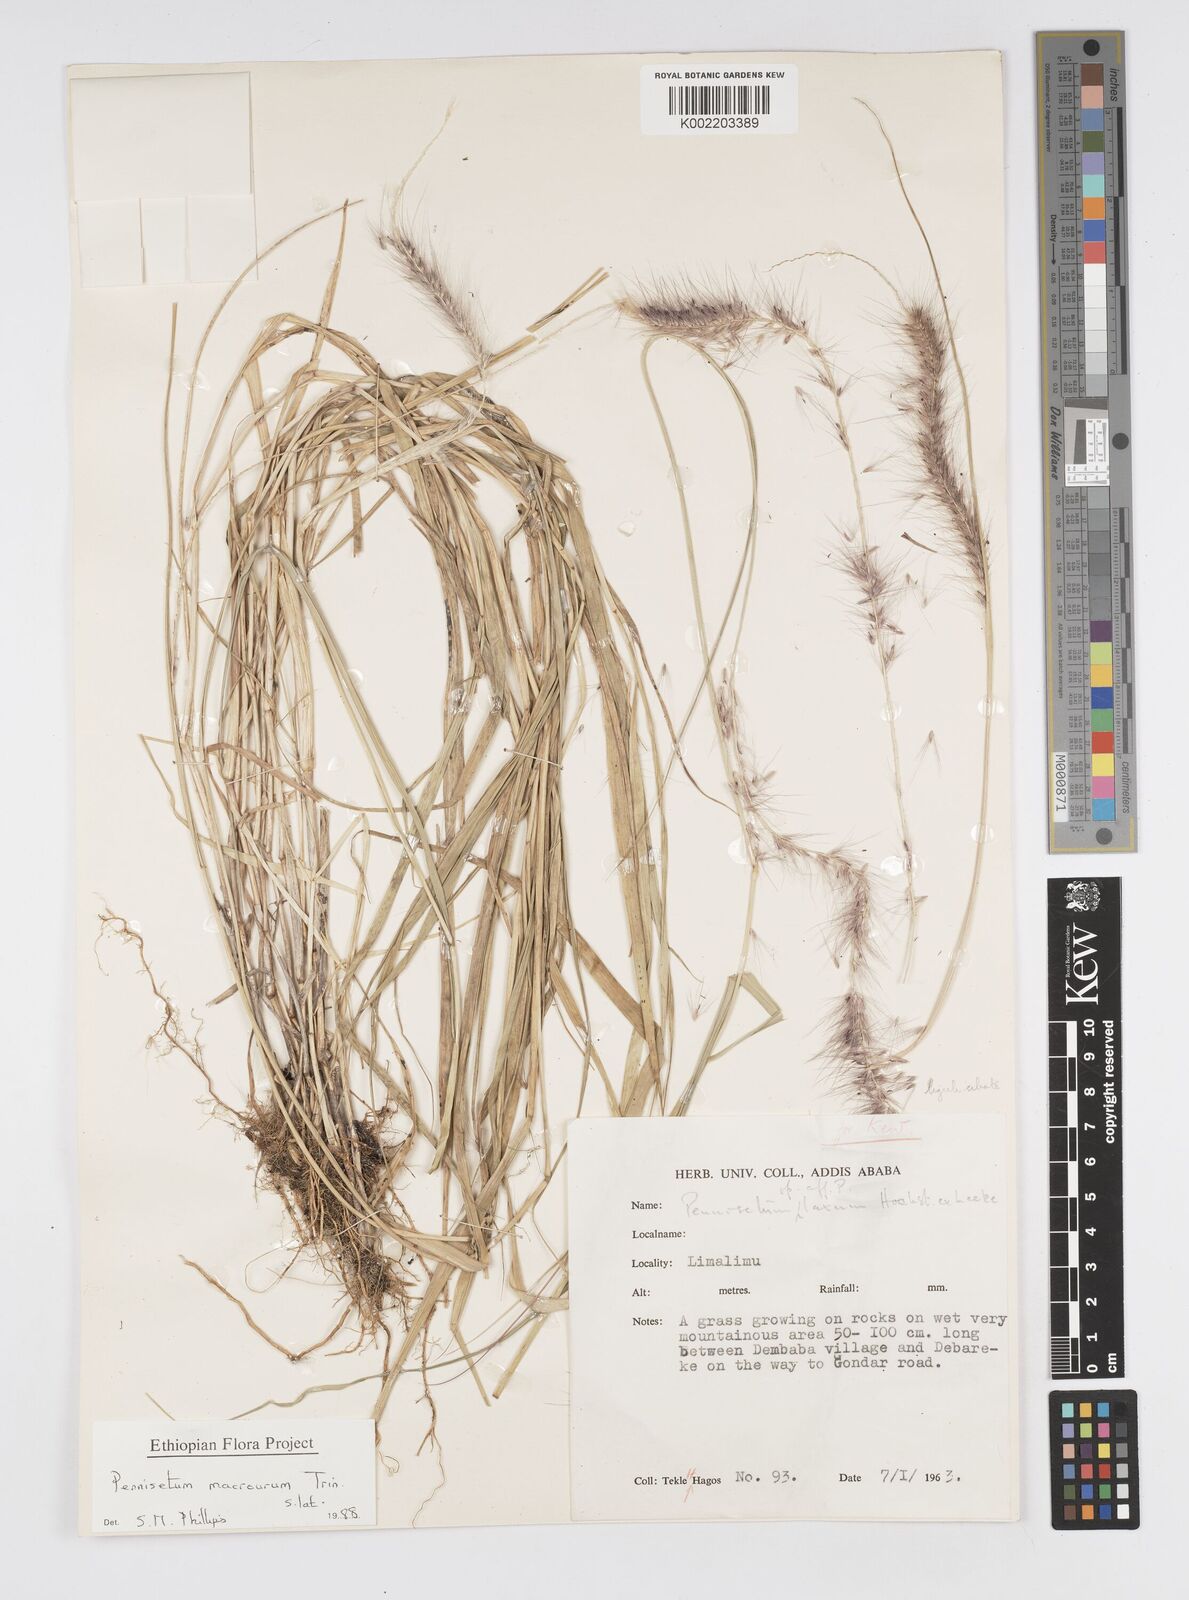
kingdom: Plantae
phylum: Tracheophyta
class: Liliopsida
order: Poales
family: Poaceae
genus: Cenchrus
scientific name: Cenchrus caudatus
